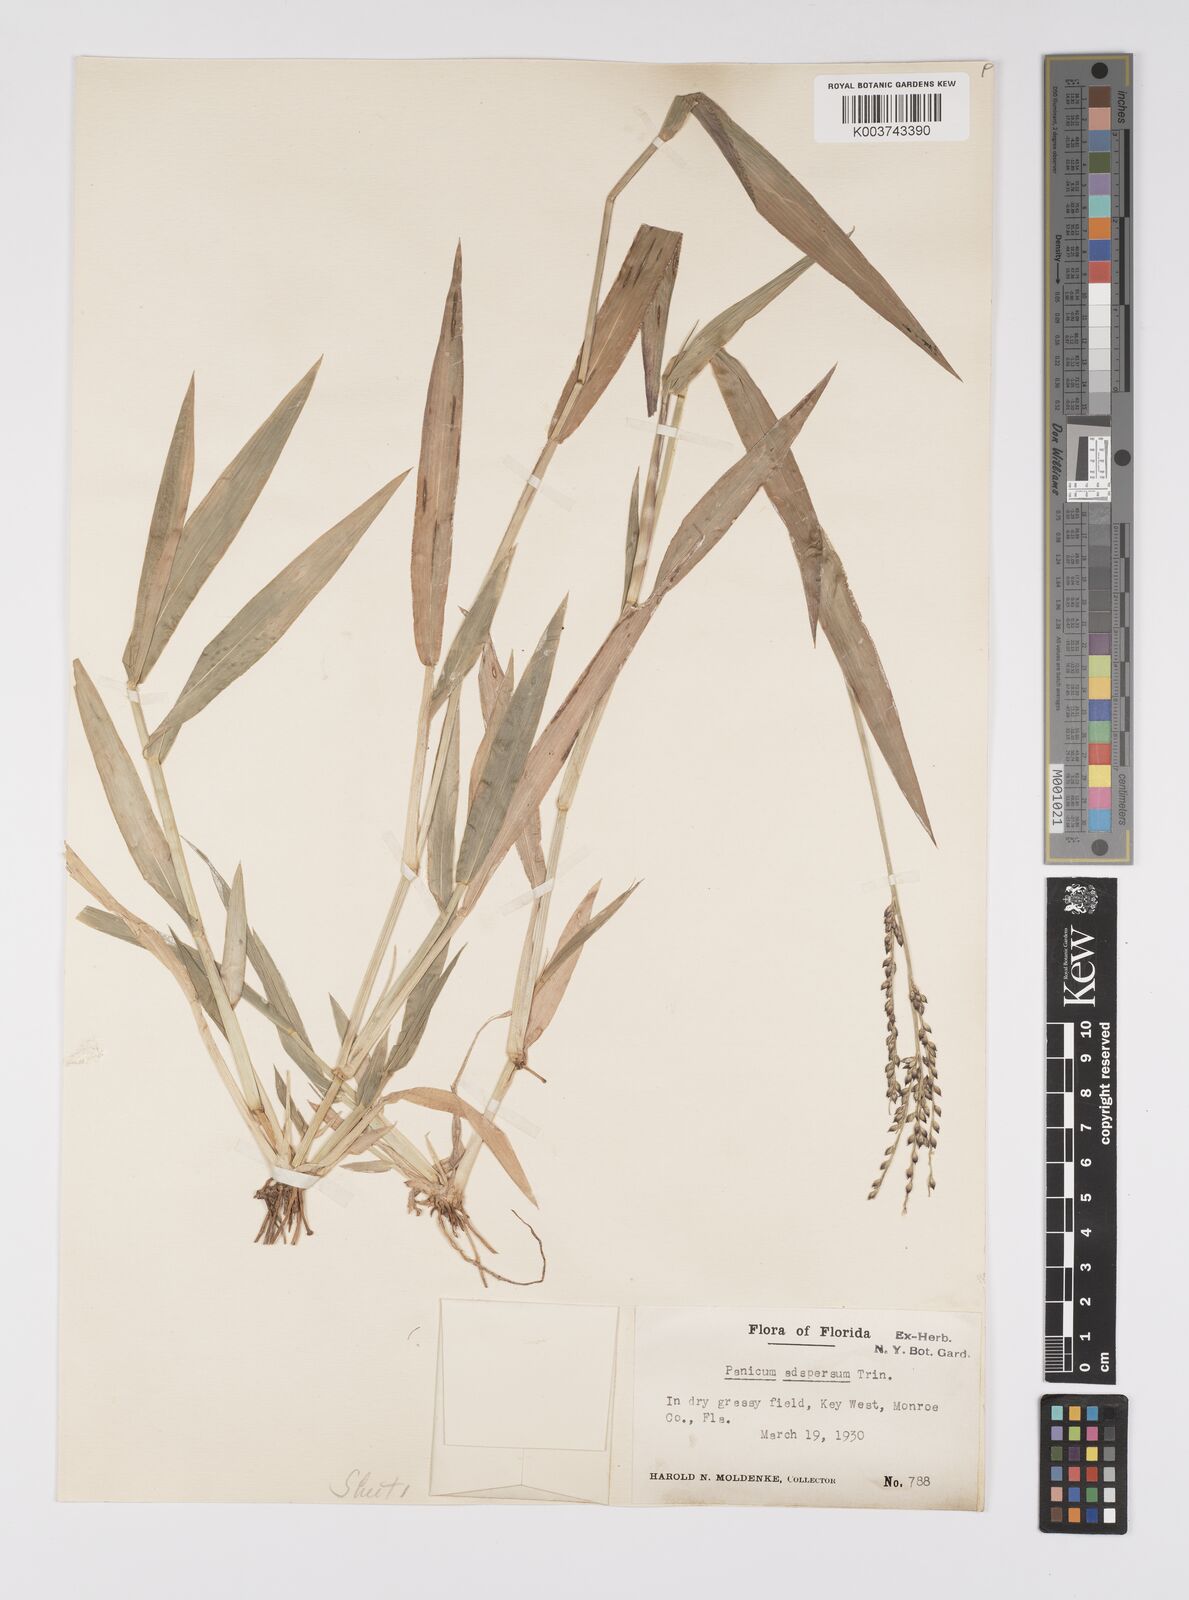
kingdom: Plantae
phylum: Tracheophyta
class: Liliopsida
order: Poales
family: Poaceae
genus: Urochloa
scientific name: Urochloa adspersa
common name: Dominican signal grass
